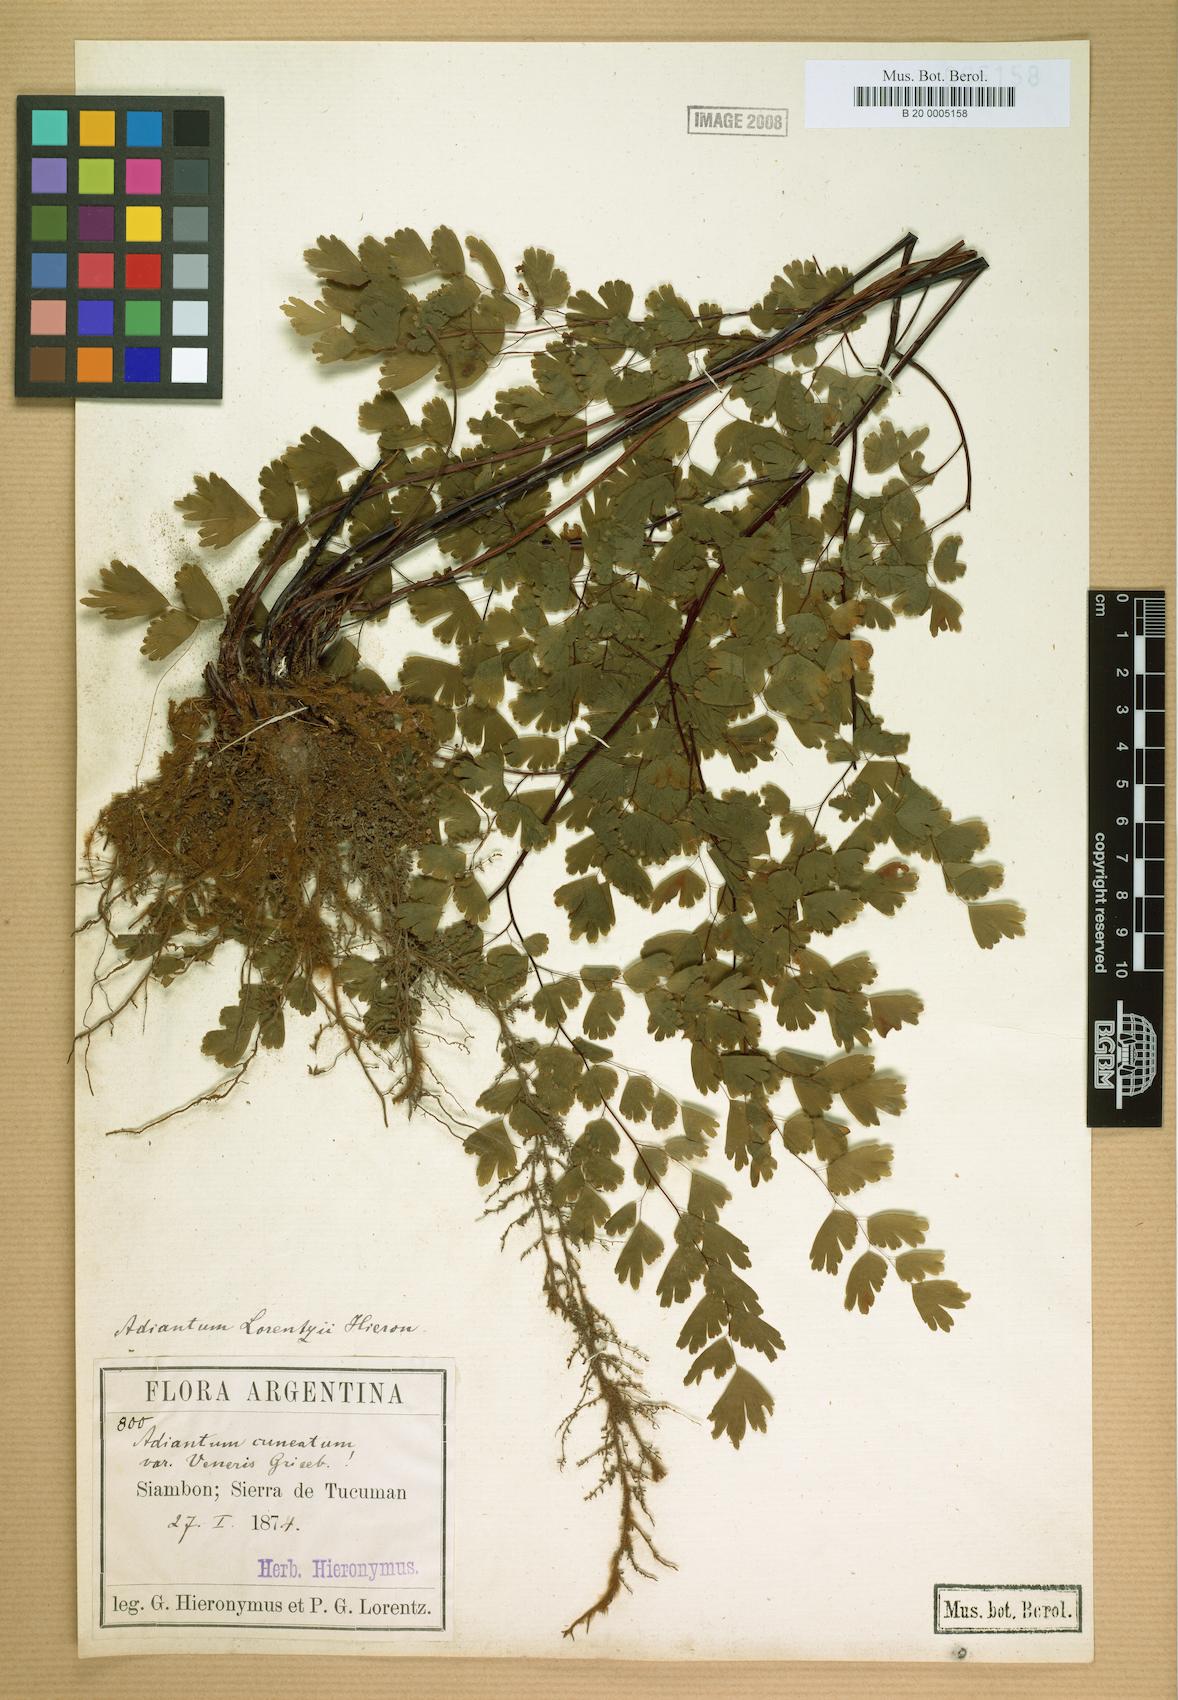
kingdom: Plantae
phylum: Tracheophyta
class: Polypodiopsida
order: Polypodiales
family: Pteridaceae
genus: Adiantum
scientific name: Adiantum lorentzii
